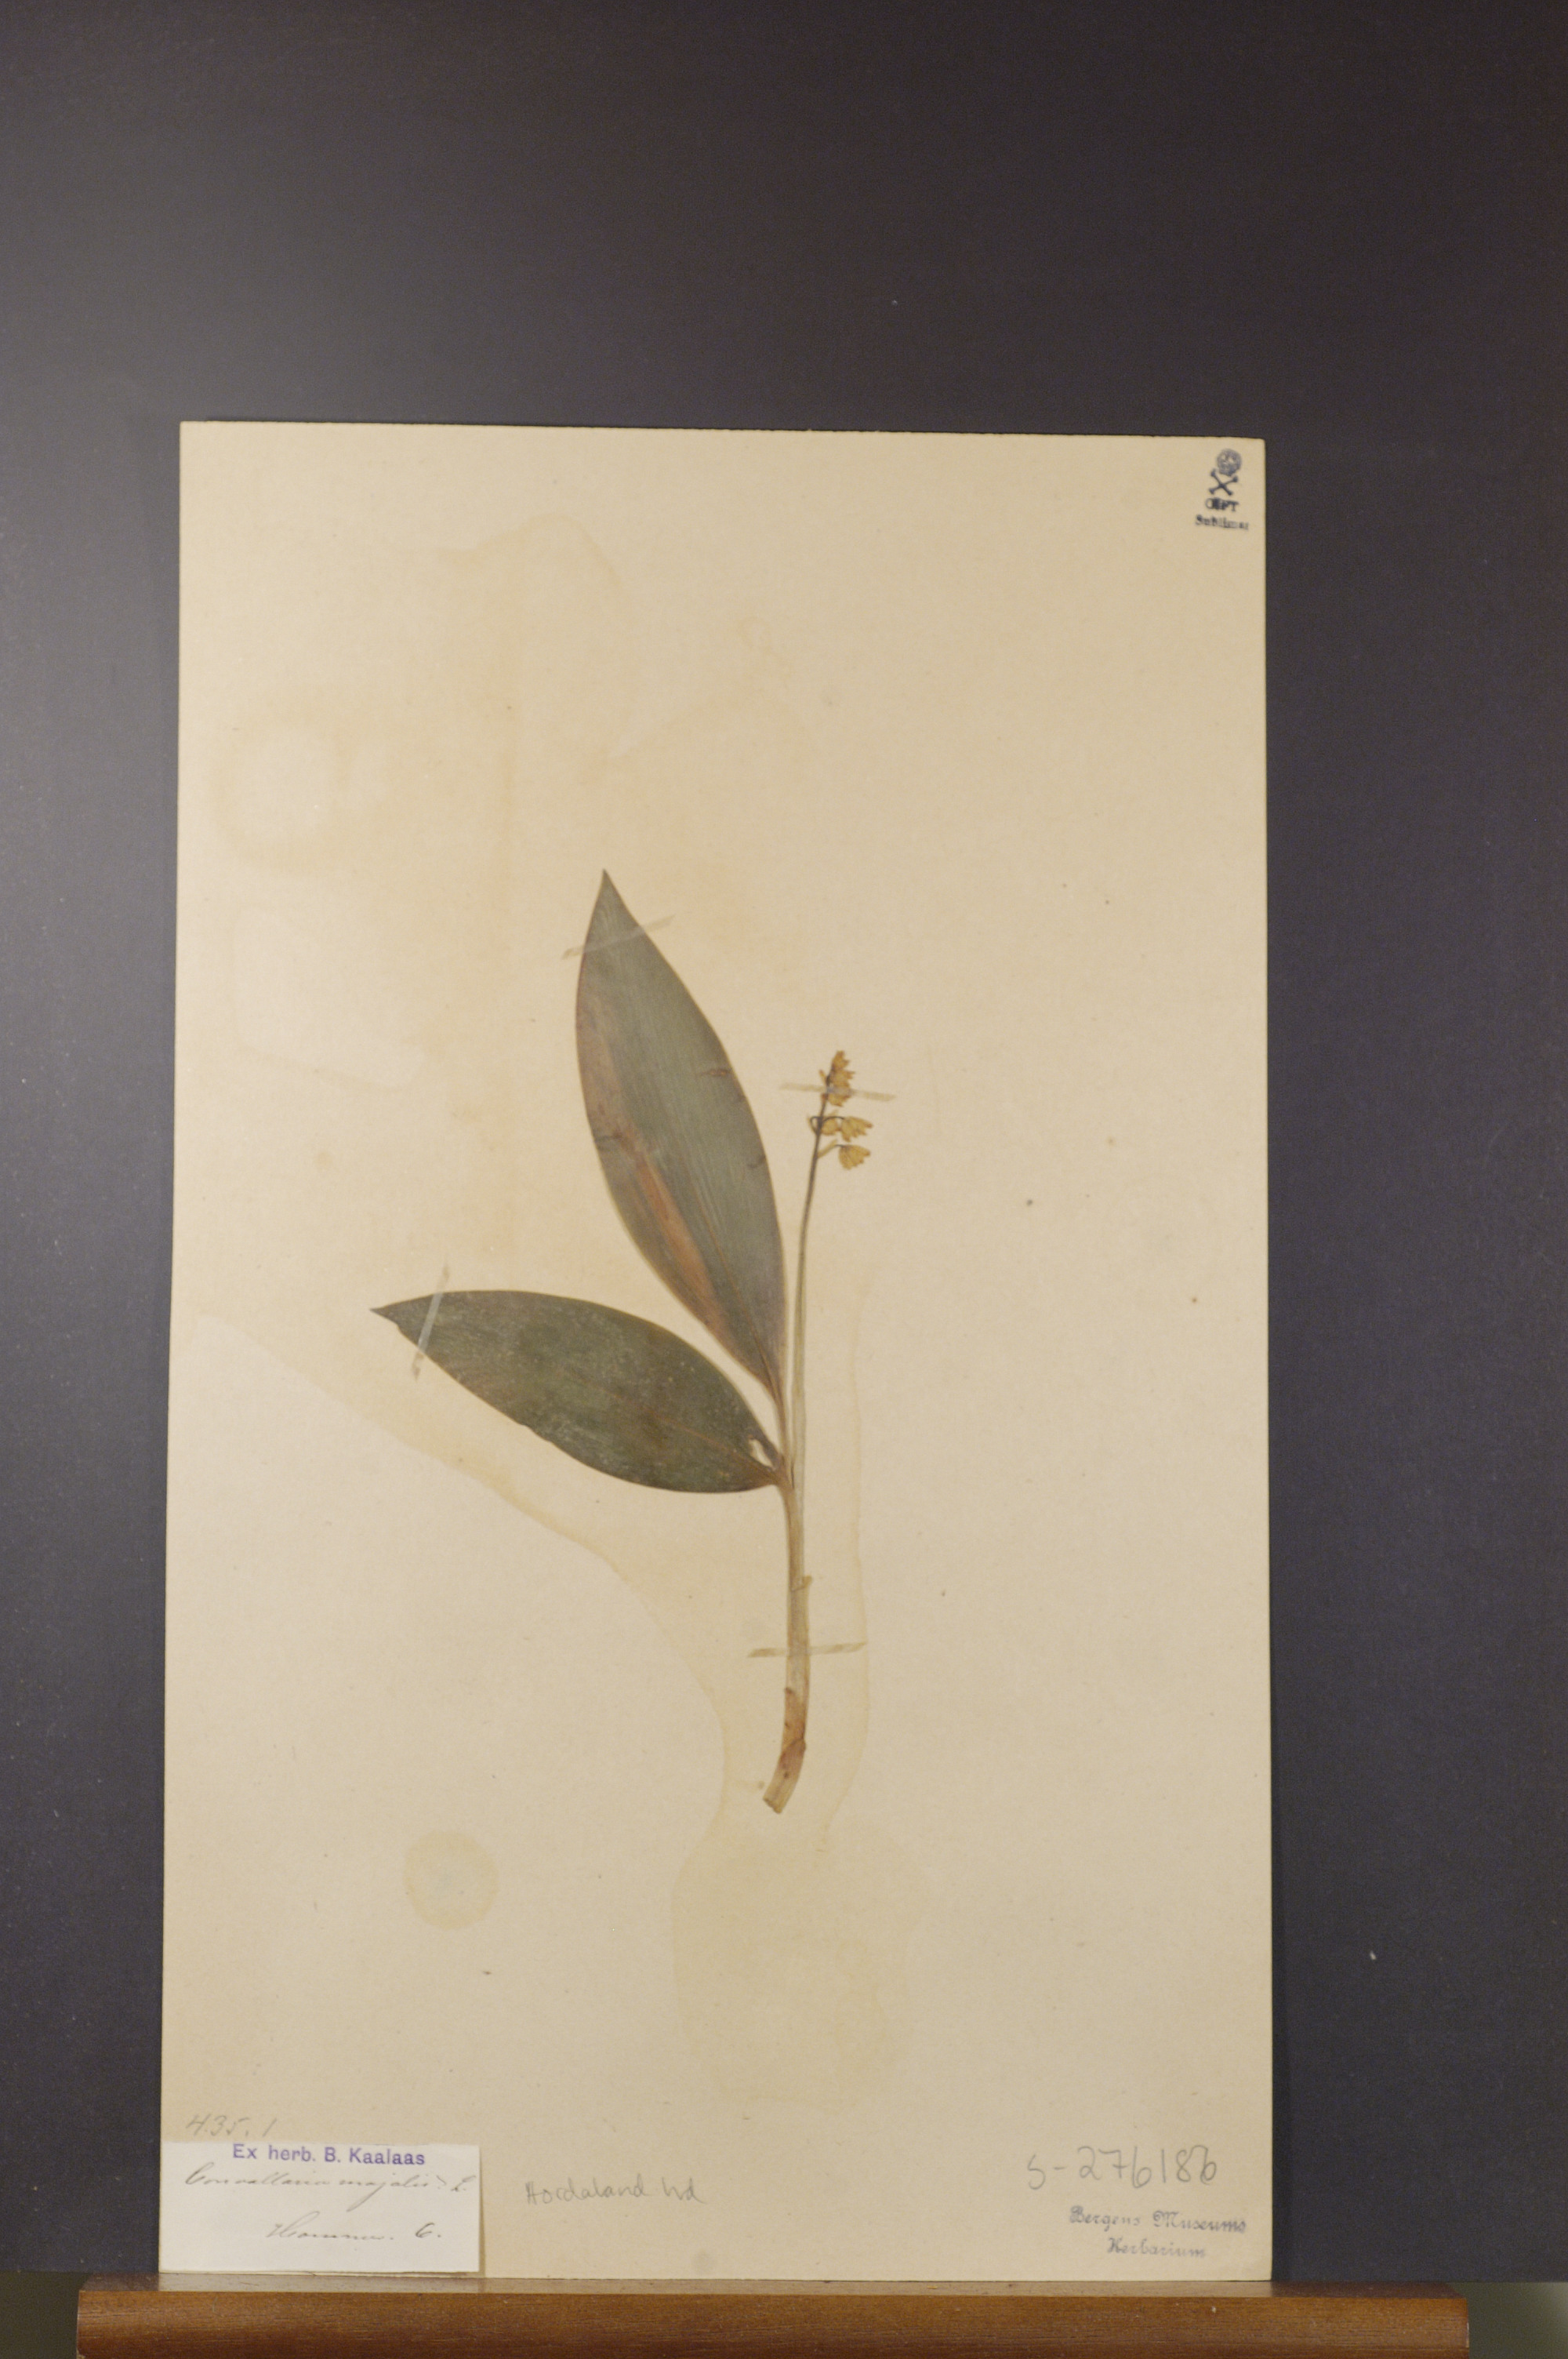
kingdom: Plantae
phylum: Tracheophyta
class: Liliopsida
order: Asparagales
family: Asparagaceae
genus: Convallaria
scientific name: Convallaria majalis
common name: Lily-of-the-valley
